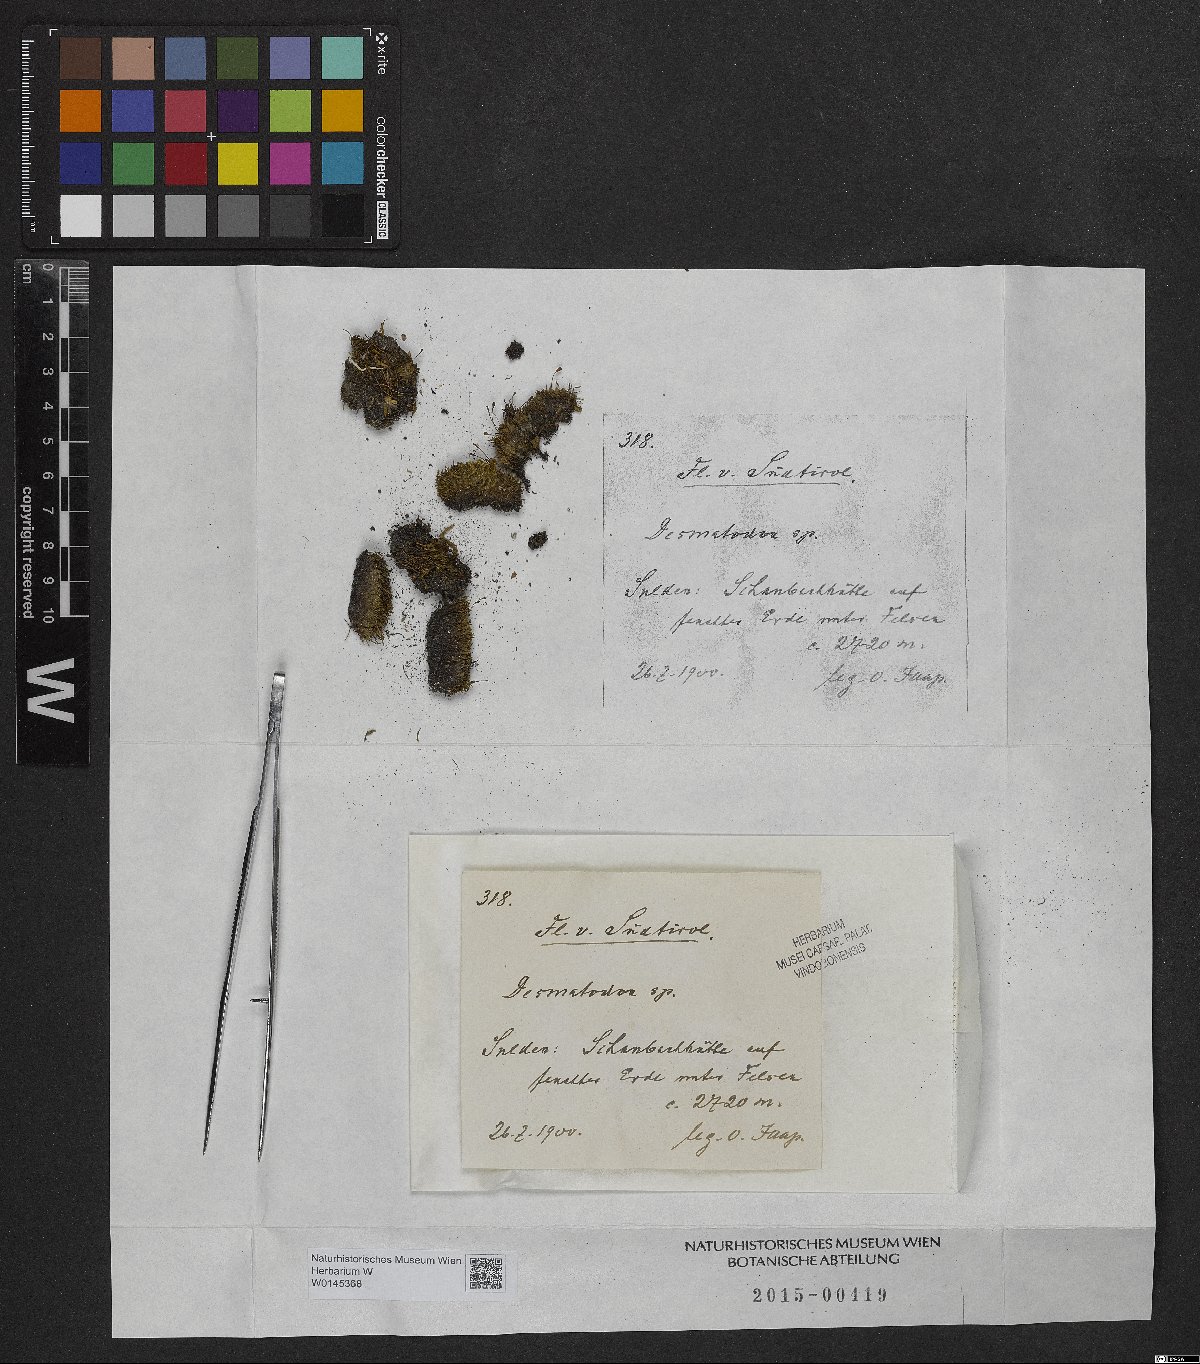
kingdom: Animalia
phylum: Chordata
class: Amphibia
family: Diadectidae
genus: Desmatodon
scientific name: Desmatodon
